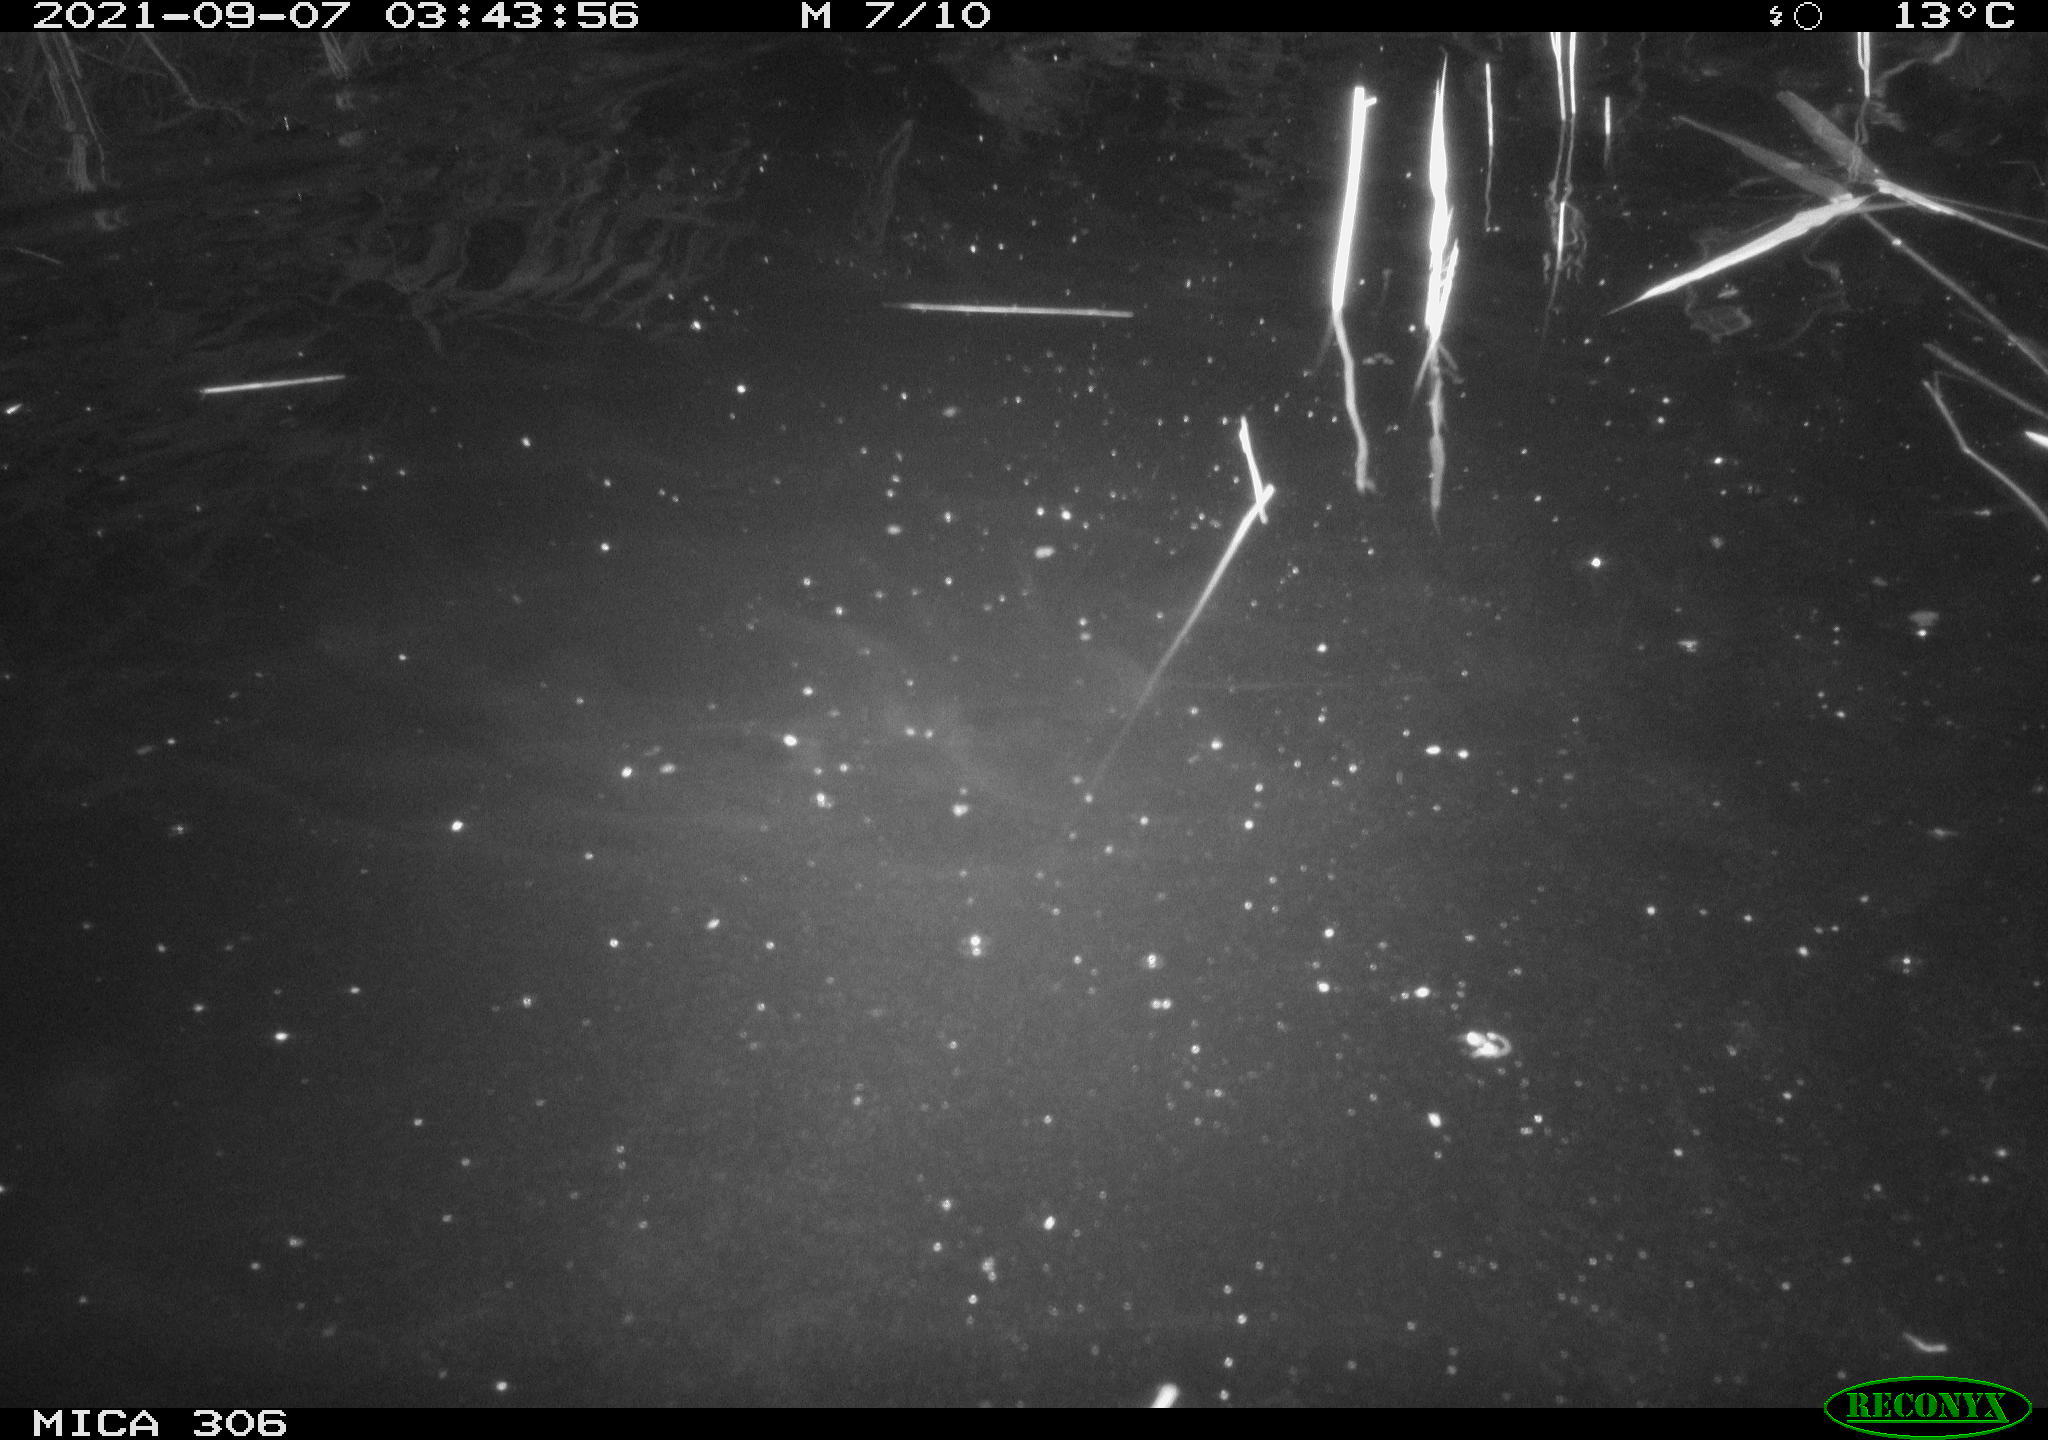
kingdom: Animalia
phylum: Chordata
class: Mammalia
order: Rodentia
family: Muridae
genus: Rattus
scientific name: Rattus norvegicus
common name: Brown rat
